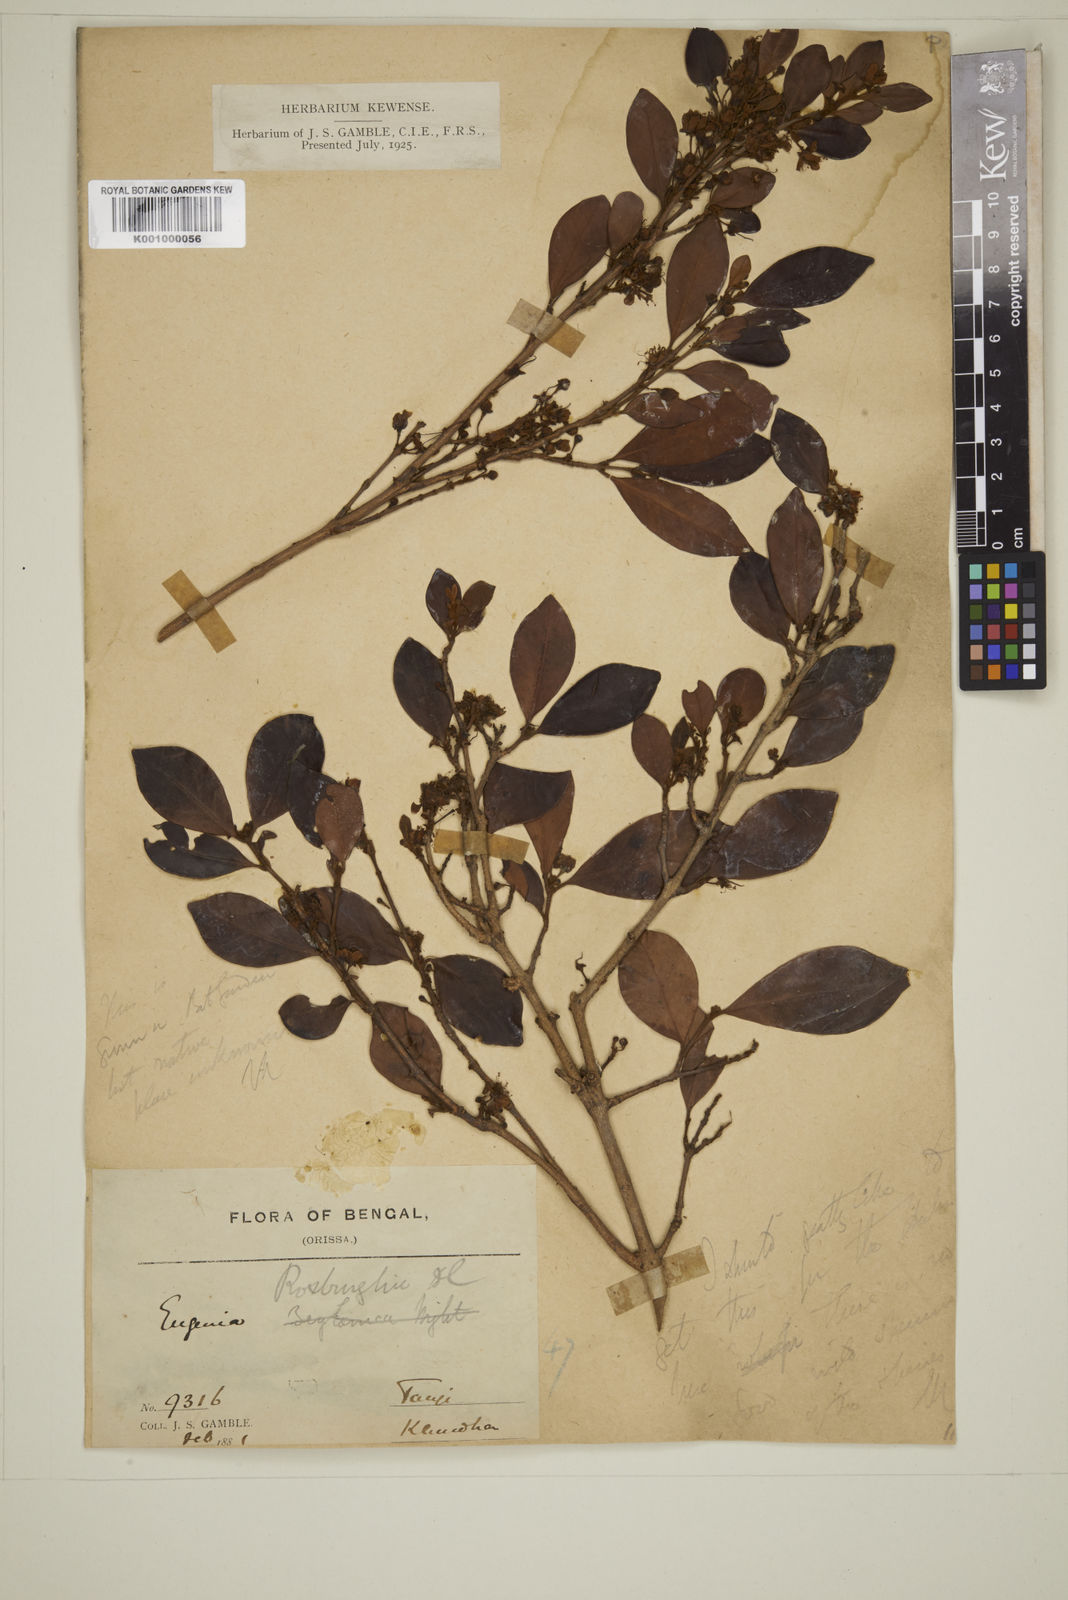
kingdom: Plantae
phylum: Tracheophyta
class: Magnoliopsida
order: Myrtales
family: Myrtaceae
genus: Myrcia
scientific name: Myrcia bracteata
